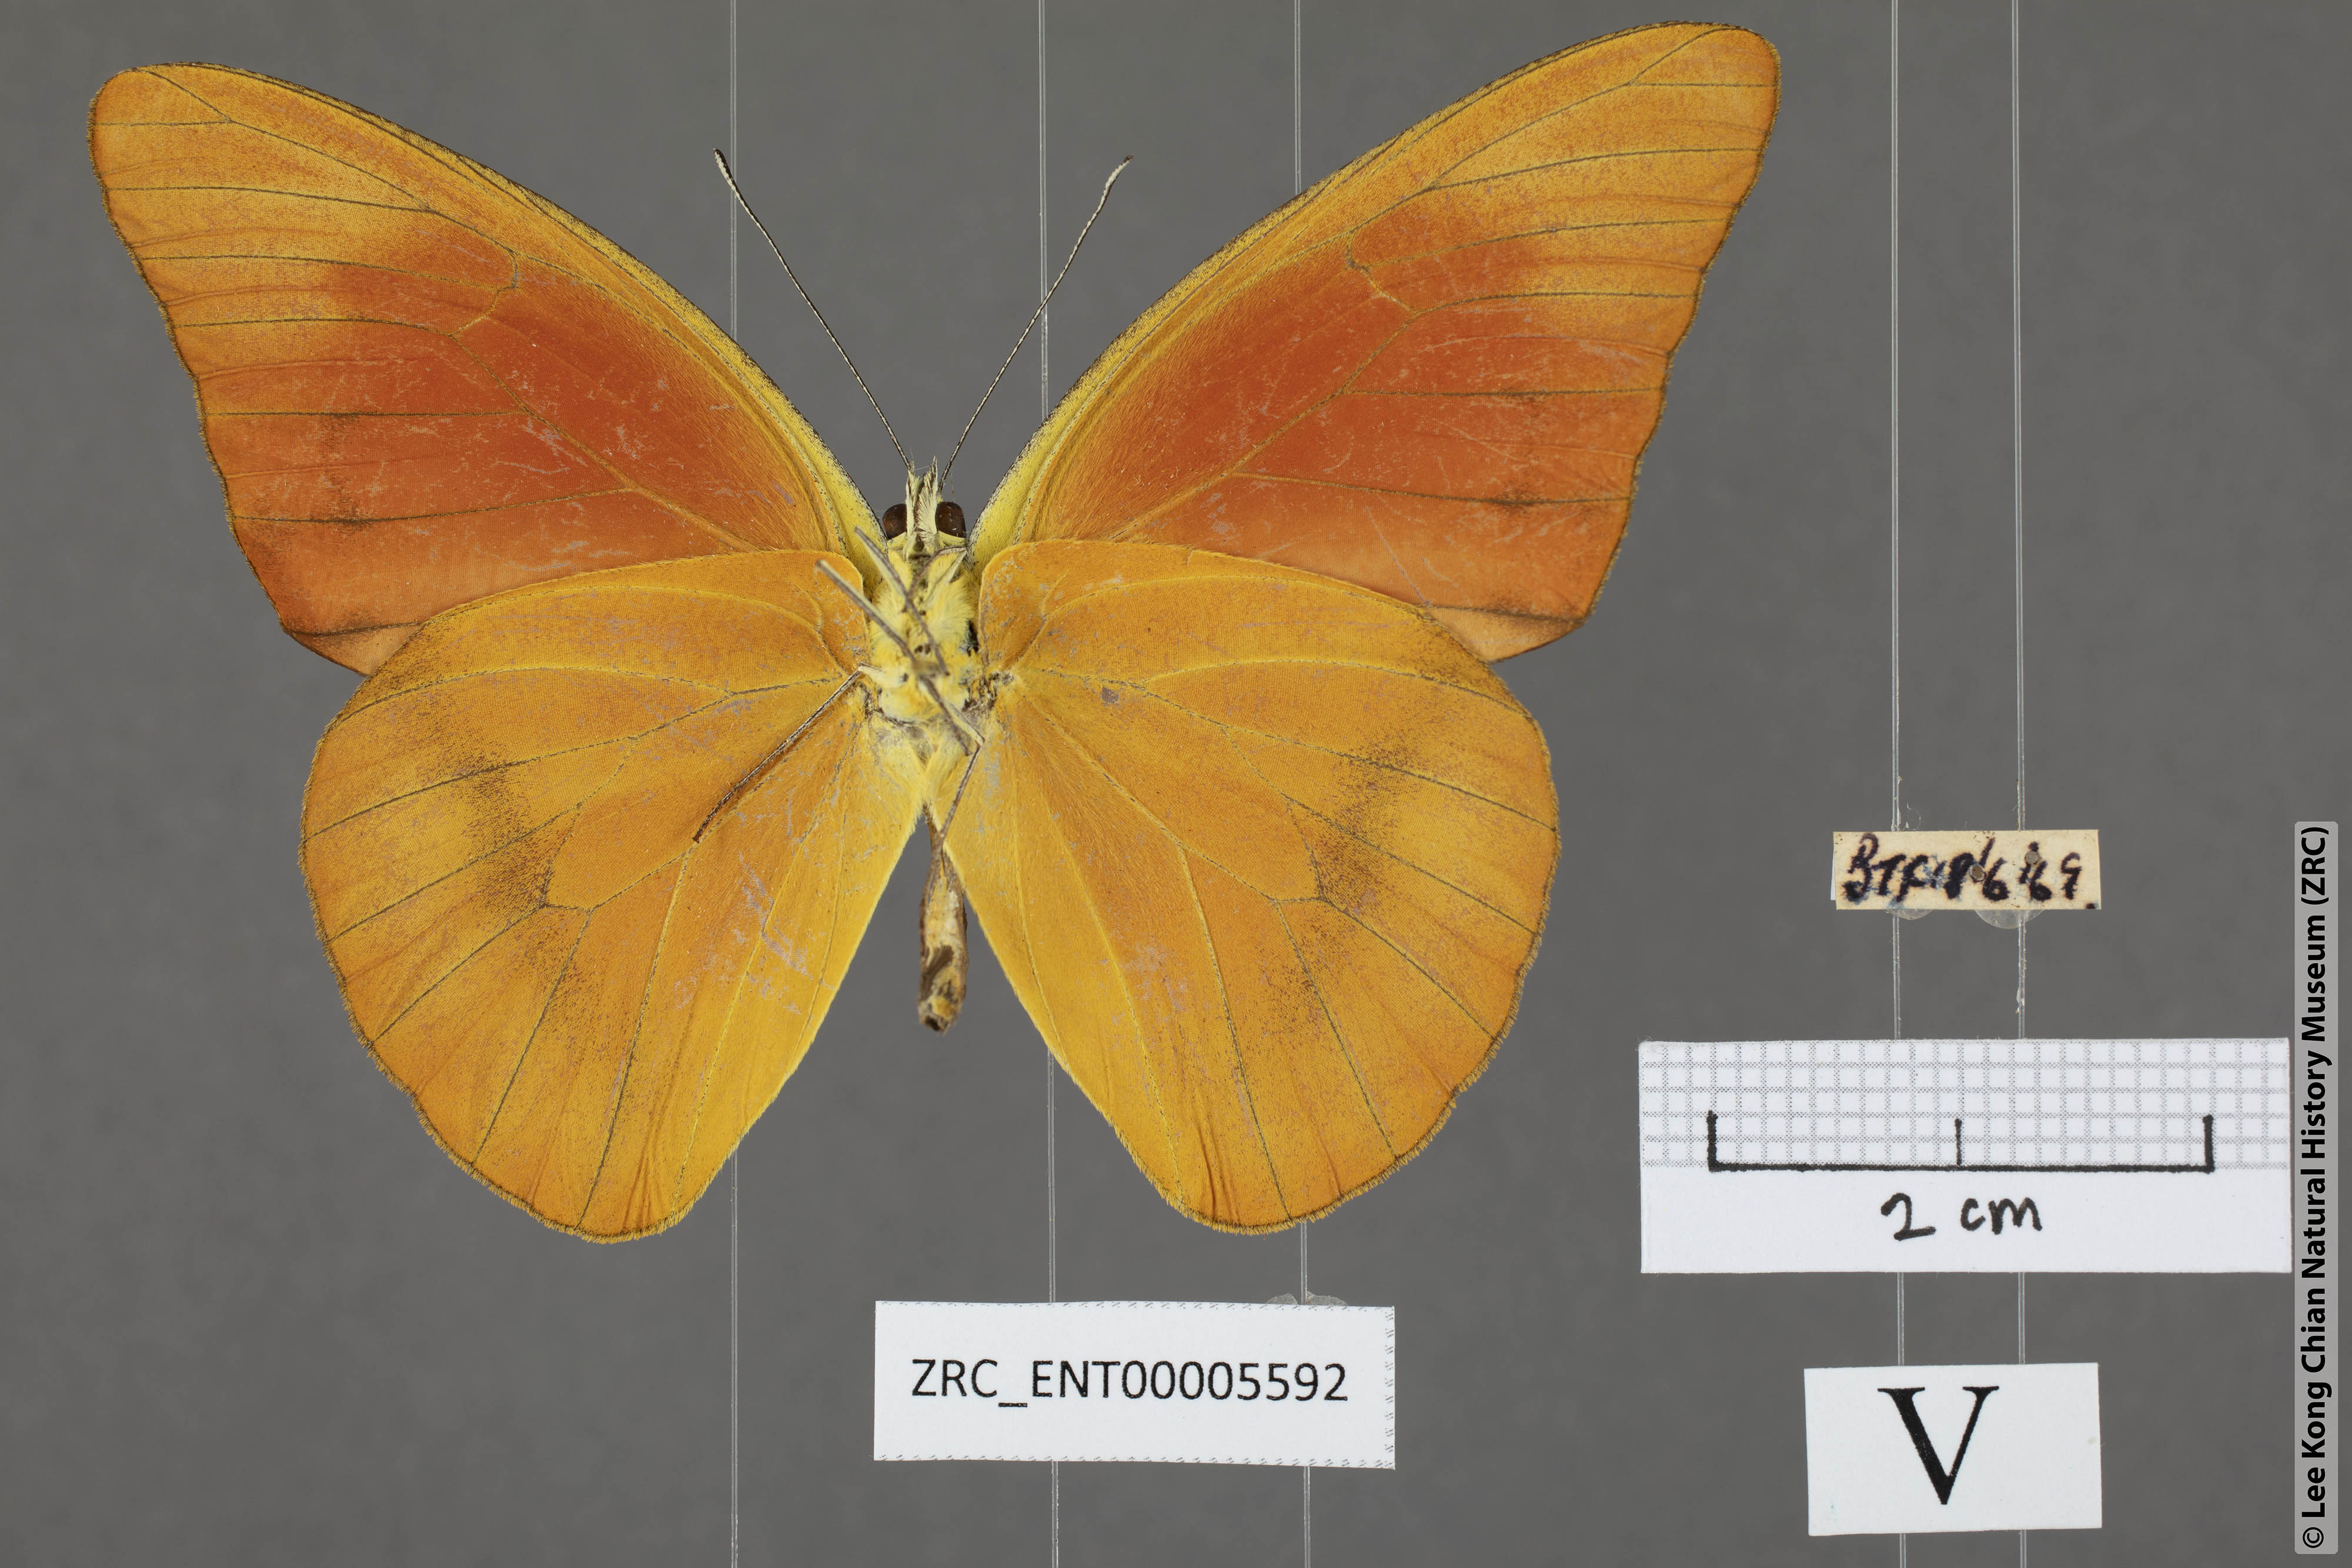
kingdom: Animalia
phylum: Arthropoda
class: Insecta
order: Lepidoptera
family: Pieridae
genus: Appias
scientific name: Appias nero
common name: Orange albatross
